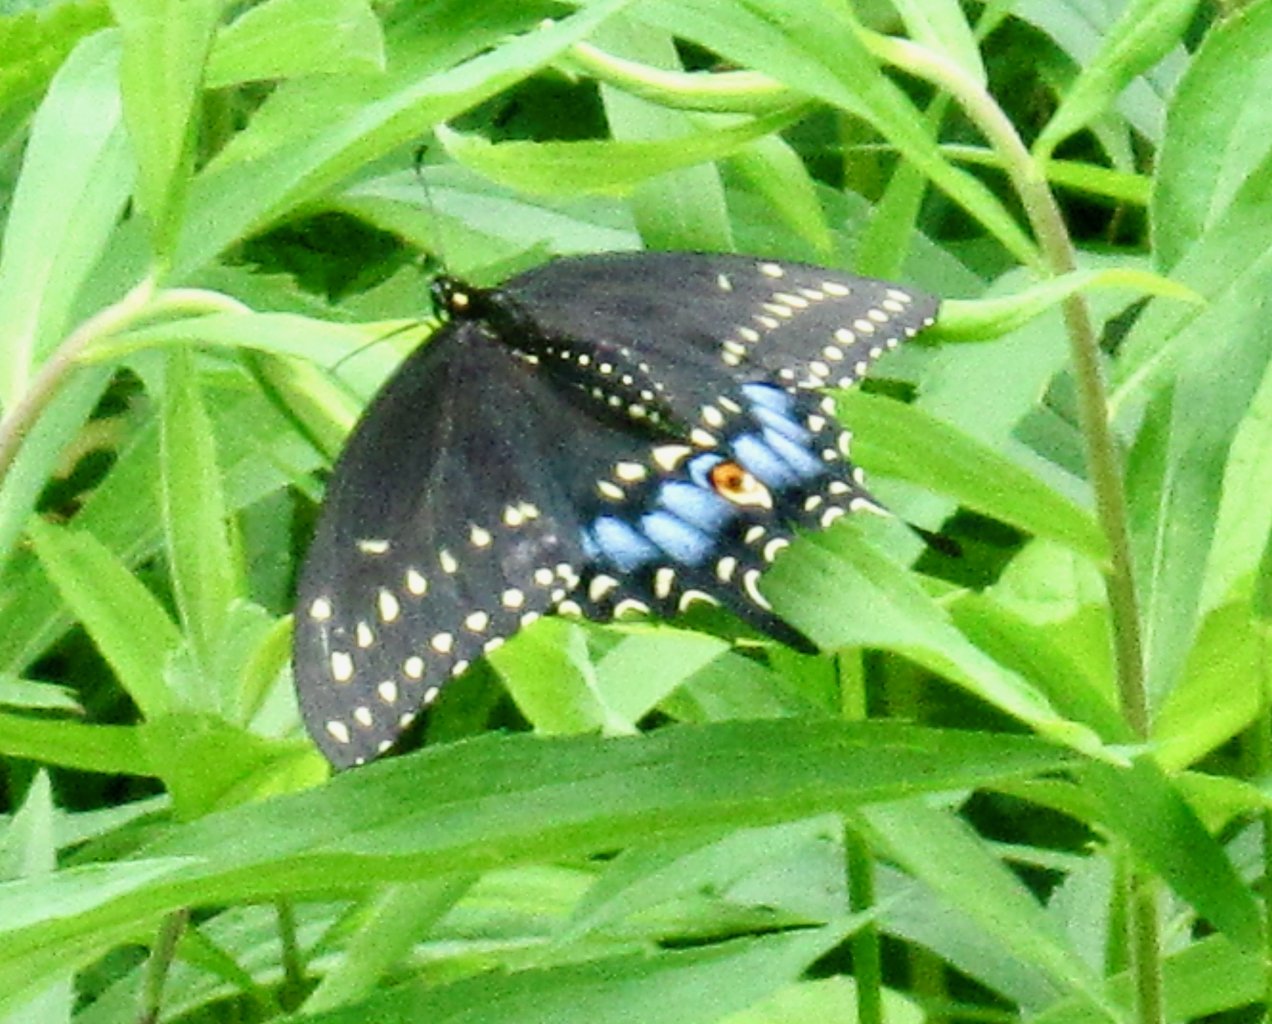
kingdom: Animalia
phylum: Arthropoda
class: Insecta
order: Lepidoptera
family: Papilionidae
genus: Papilio
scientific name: Papilio polyxenes
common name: Black Swallowtail
